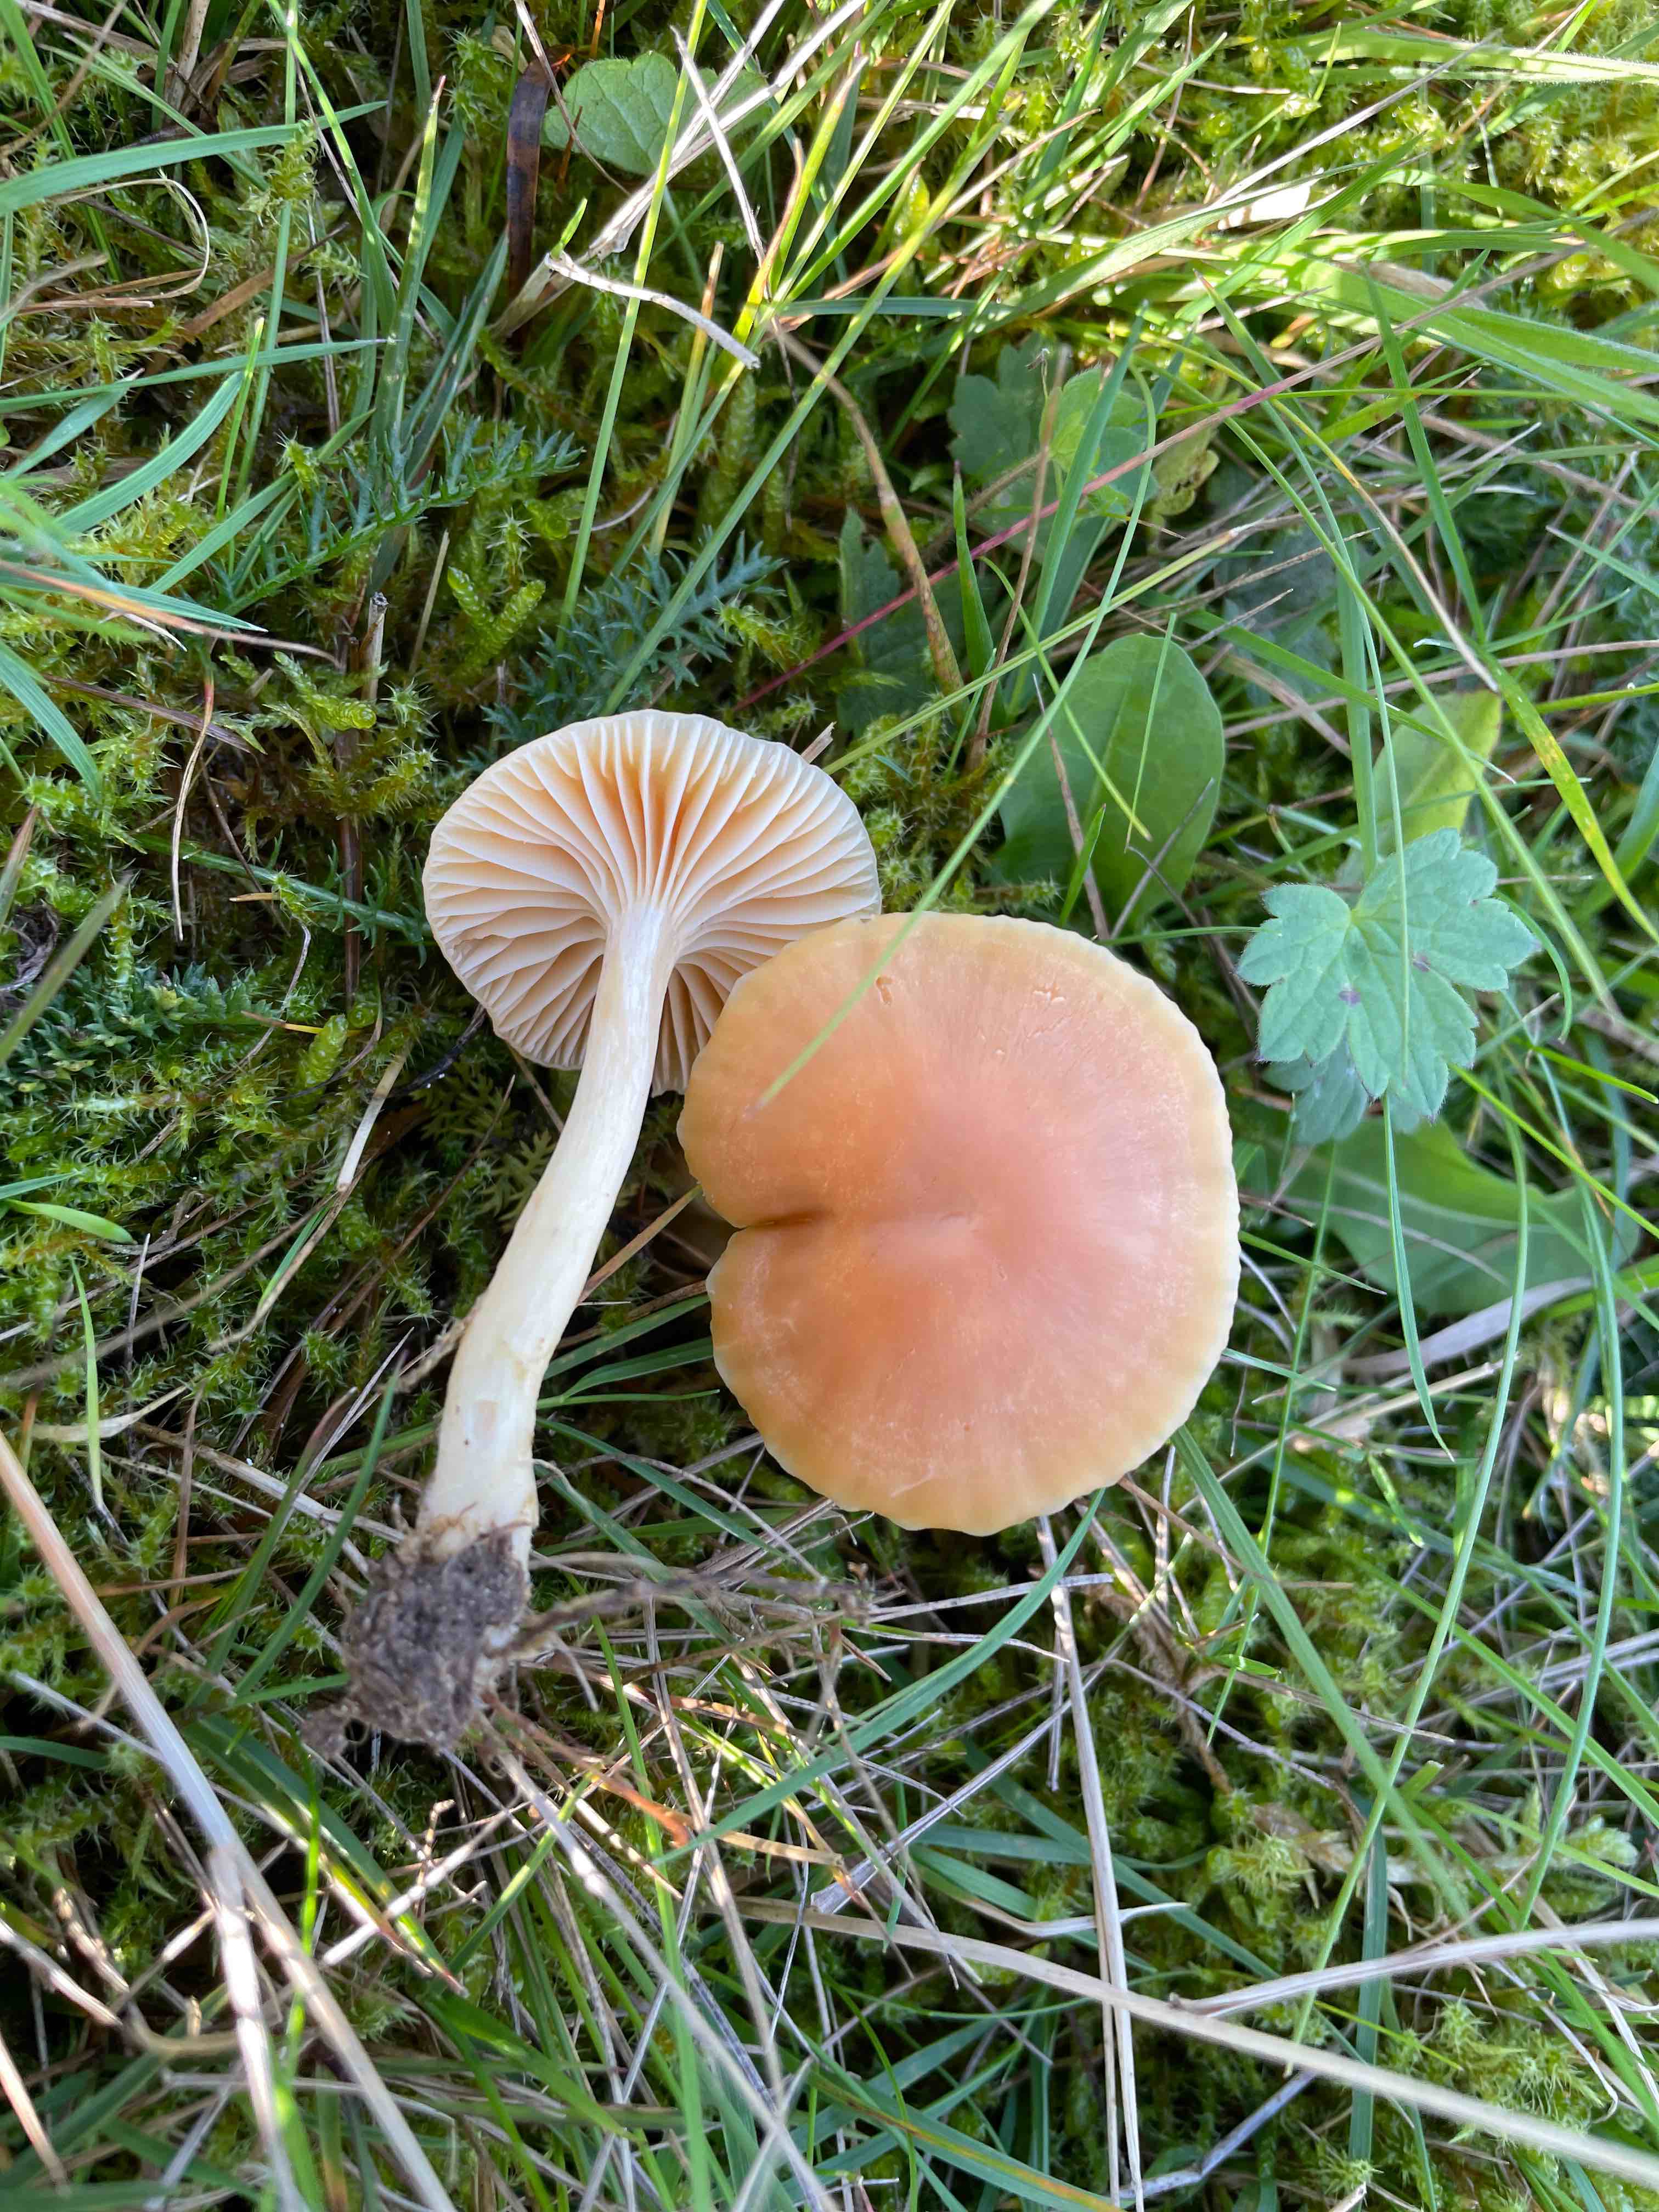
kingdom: Fungi
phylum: Basidiomycota
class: Agaricomycetes
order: Agaricales
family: Hygrophoraceae
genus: Cuphophyllus
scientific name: Cuphophyllus pratensis
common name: eng-vokshat
